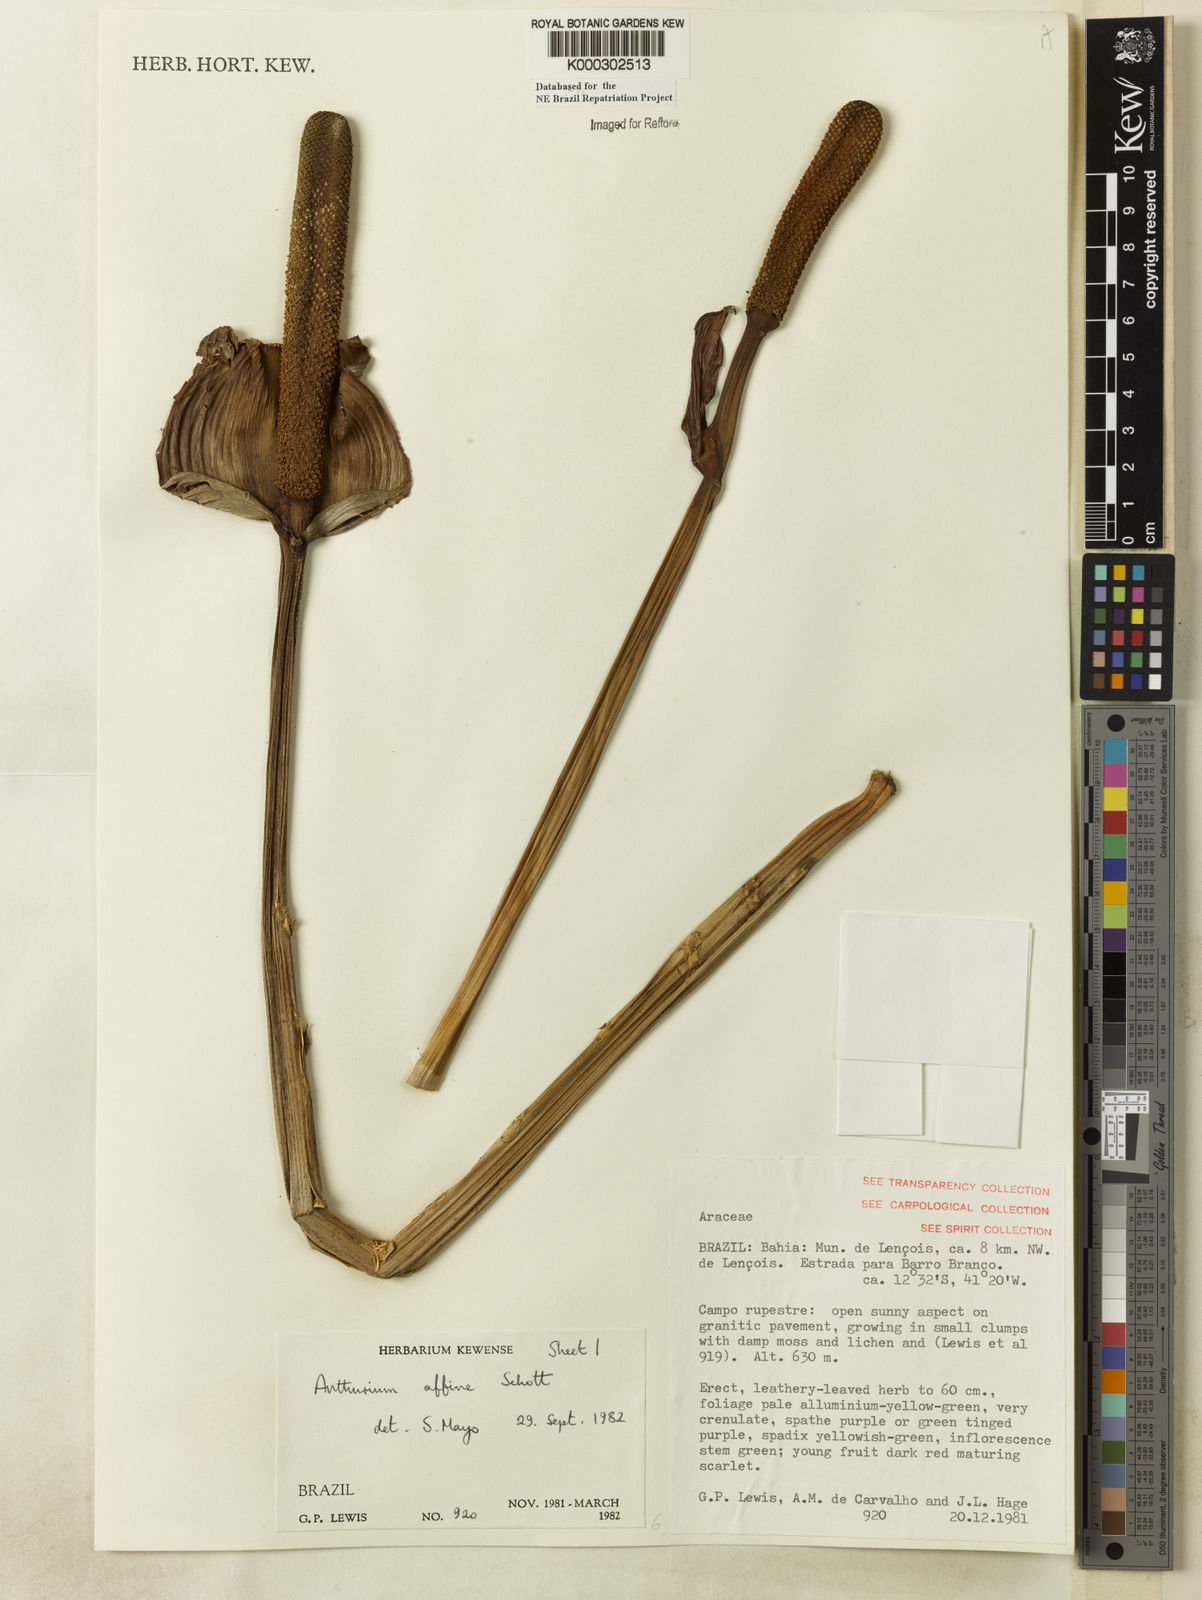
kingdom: Plantae
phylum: Tracheophyta
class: Liliopsida
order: Alismatales
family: Araceae
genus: Anthurium
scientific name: Anthurium affine
